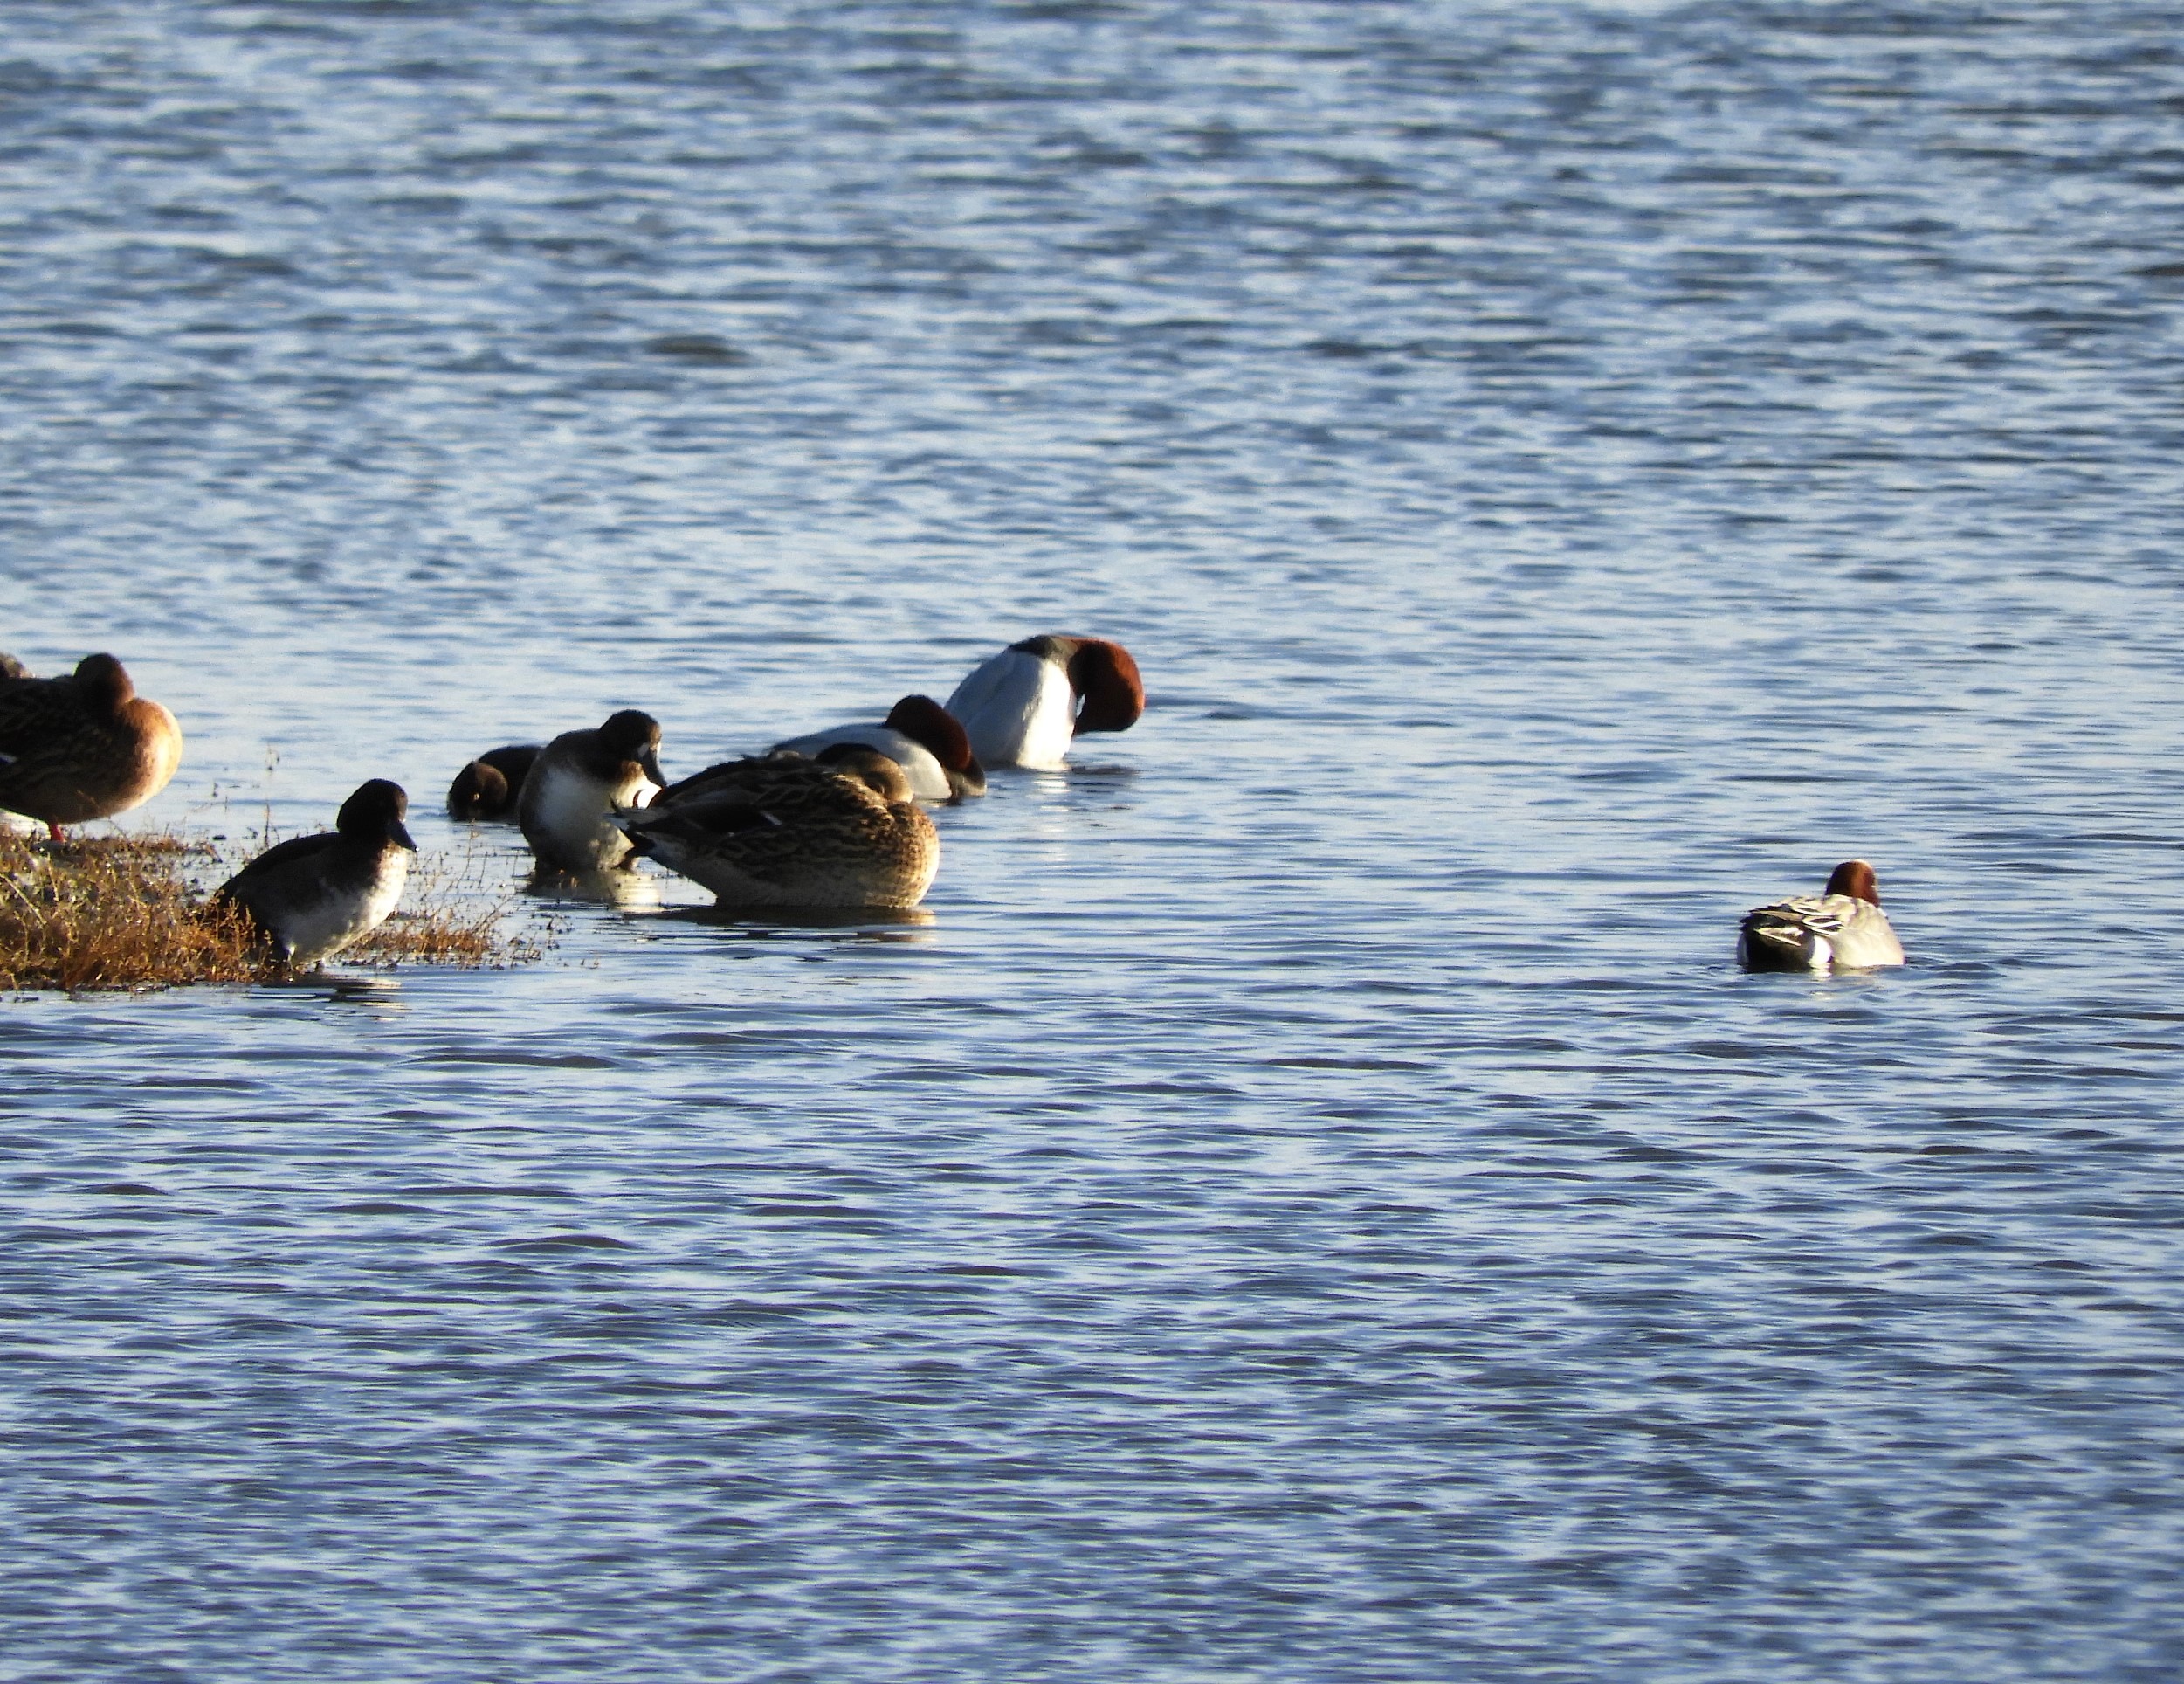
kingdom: Animalia
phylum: Chordata
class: Aves
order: Anseriformes
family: Anatidae
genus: Mareca
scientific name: Mareca penelope
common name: Pibeand
